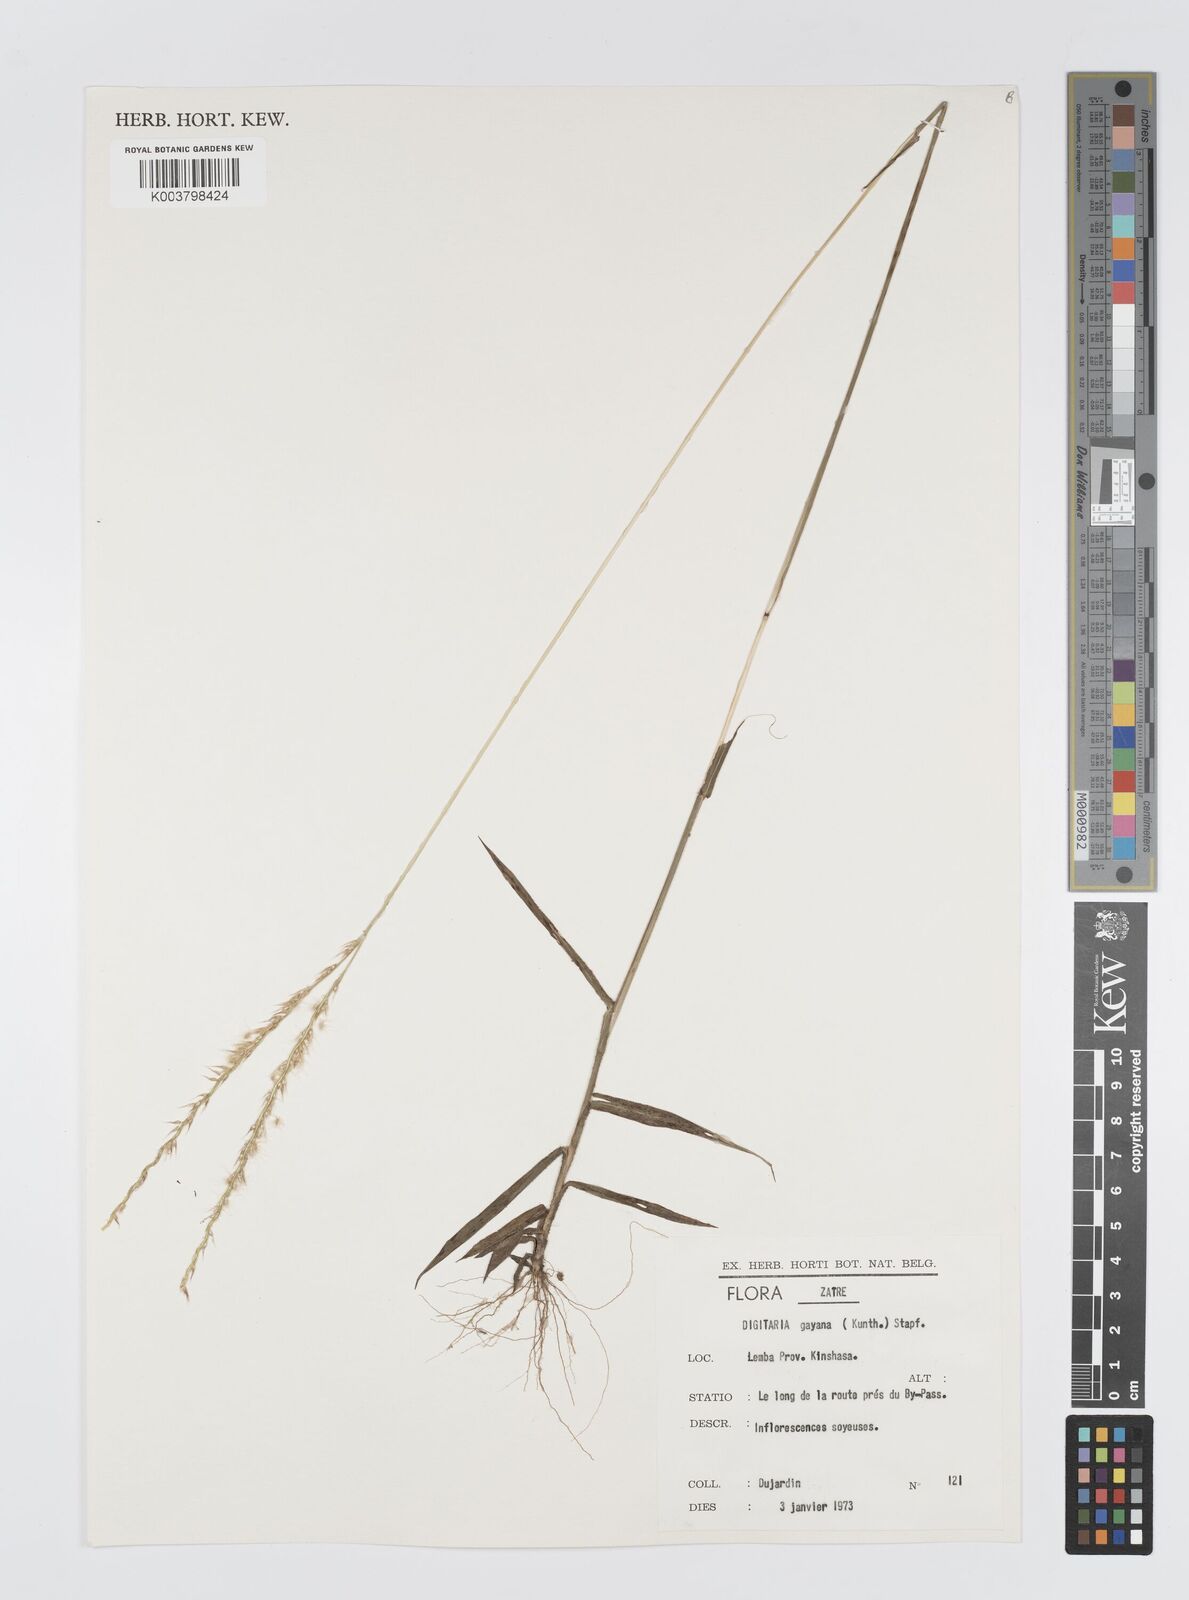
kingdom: Plantae
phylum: Tracheophyta
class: Liliopsida
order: Poales
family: Poaceae
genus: Digitaria
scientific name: Digitaria gayana
